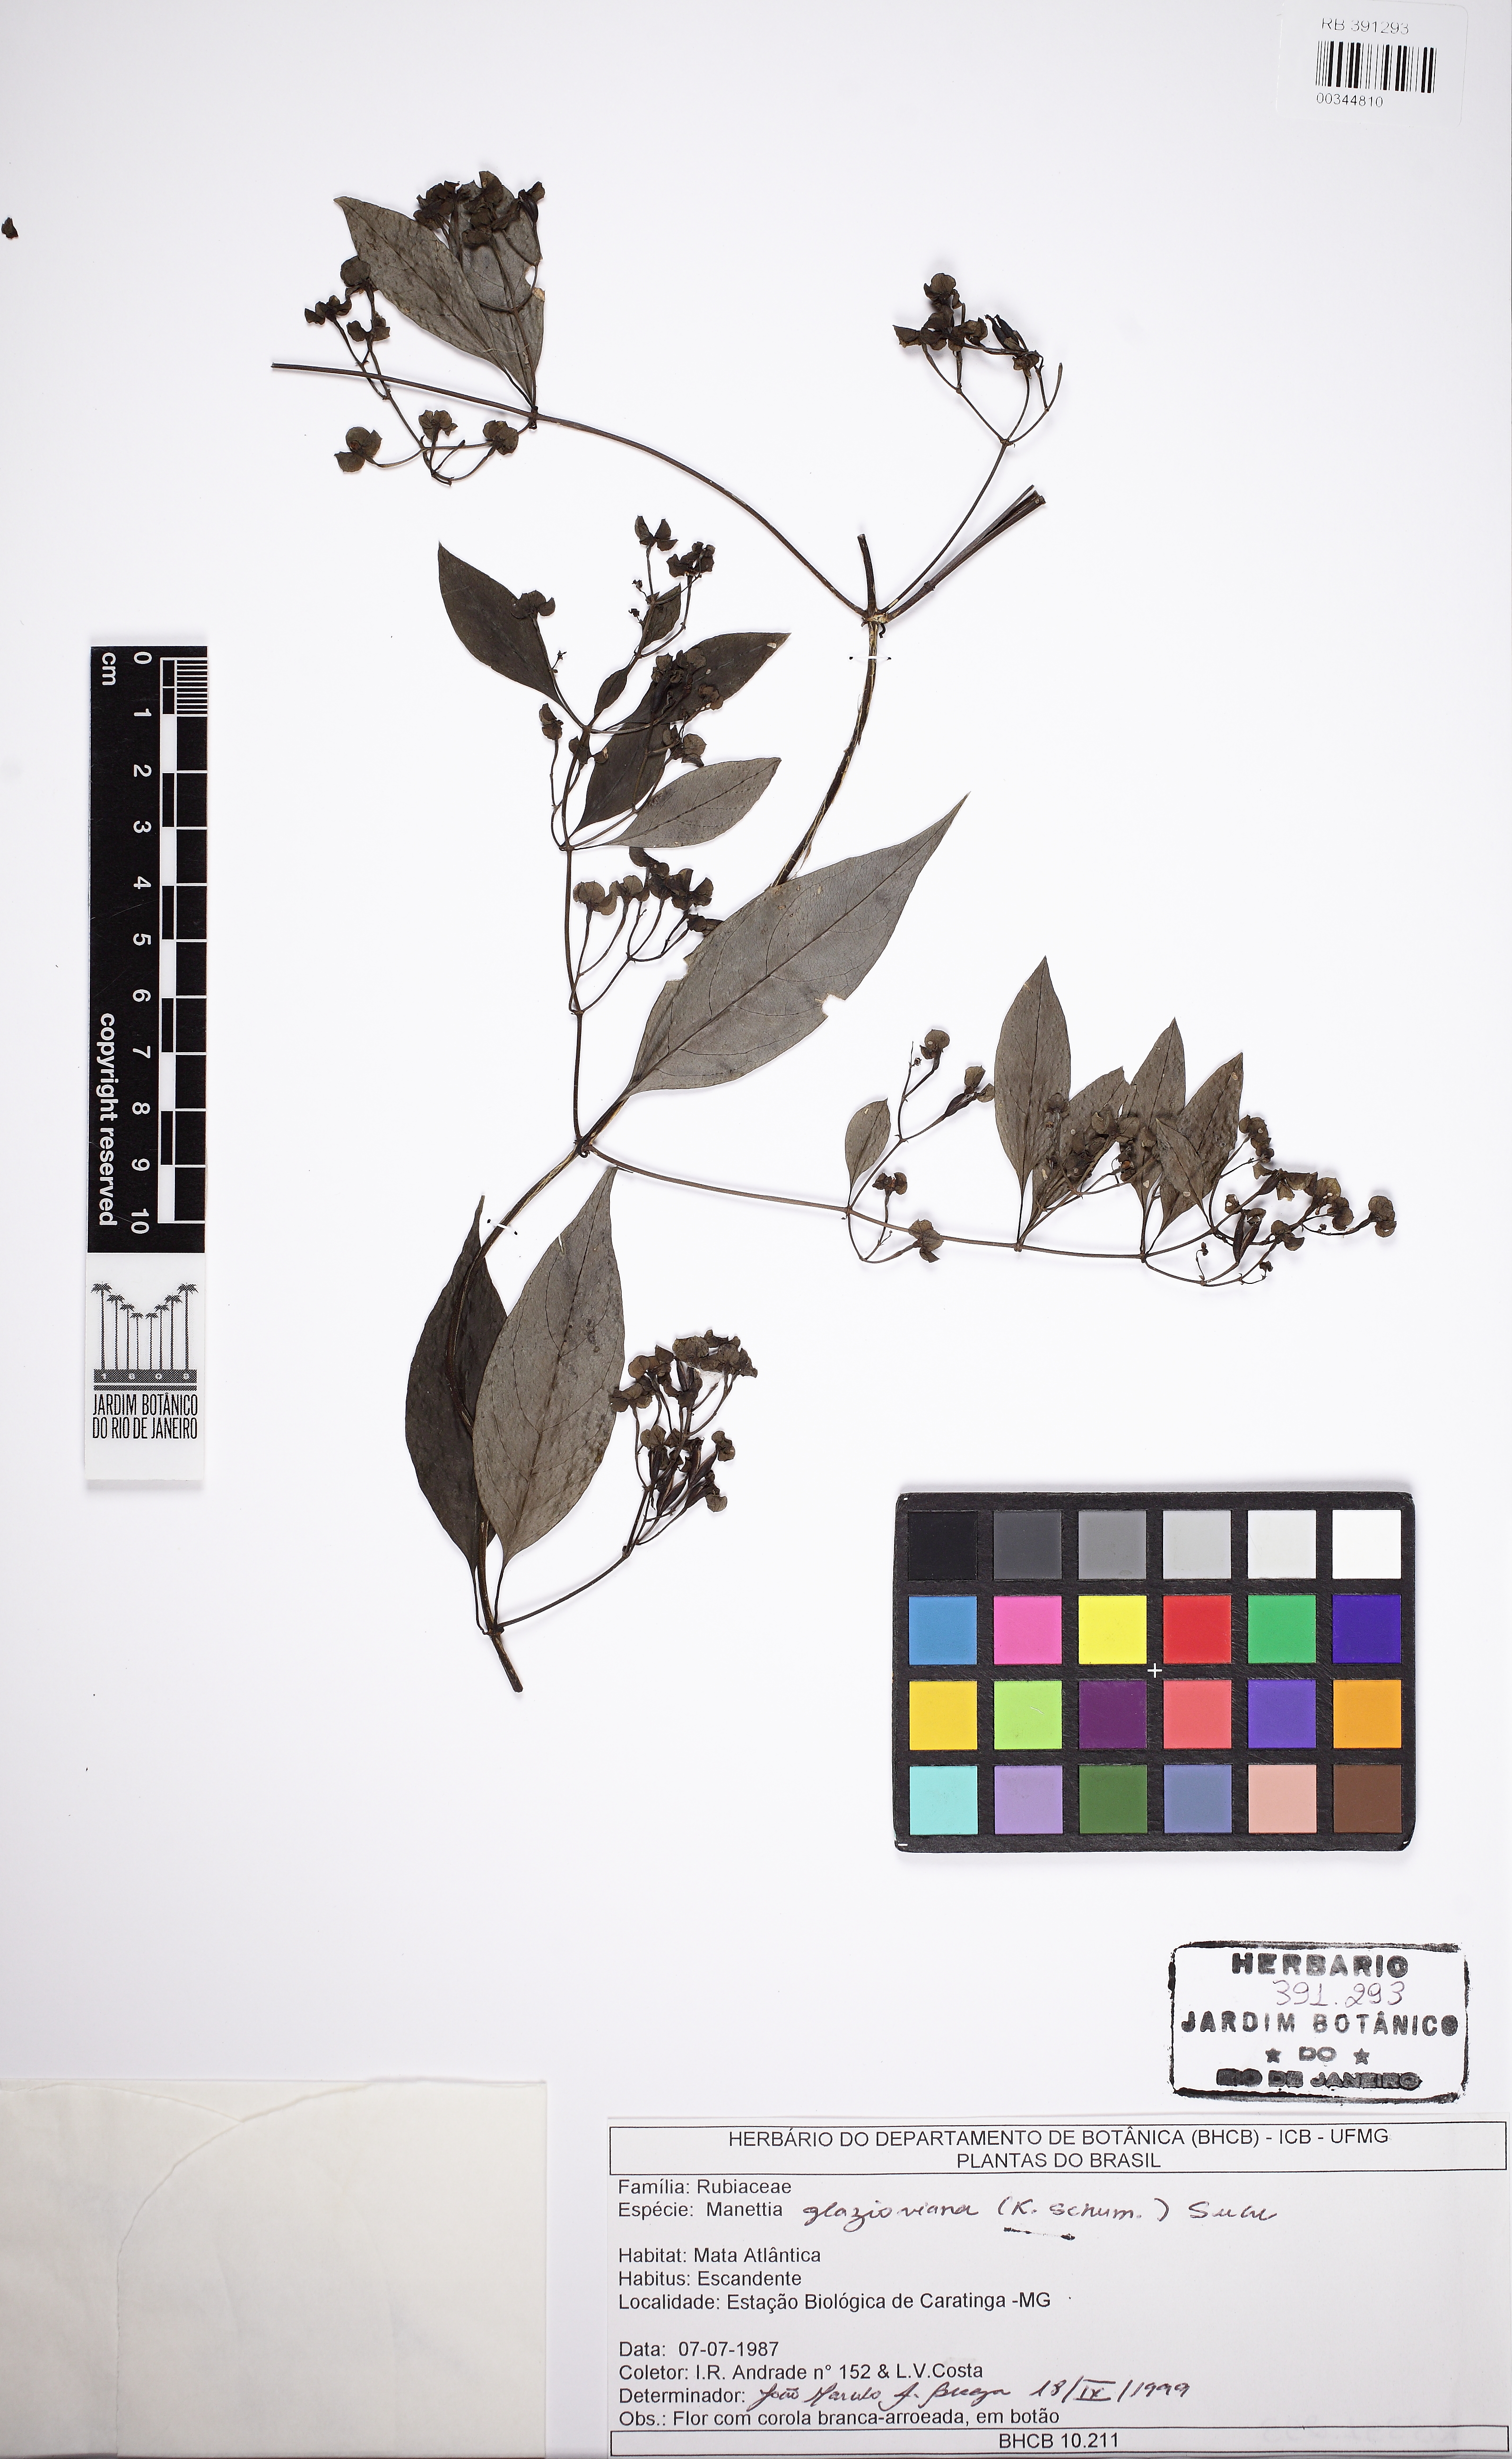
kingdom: Plantae
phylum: Tracheophyta
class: Magnoliopsida
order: Gentianales
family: Rubiaceae
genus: Manettia
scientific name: Manettia glazioviana
